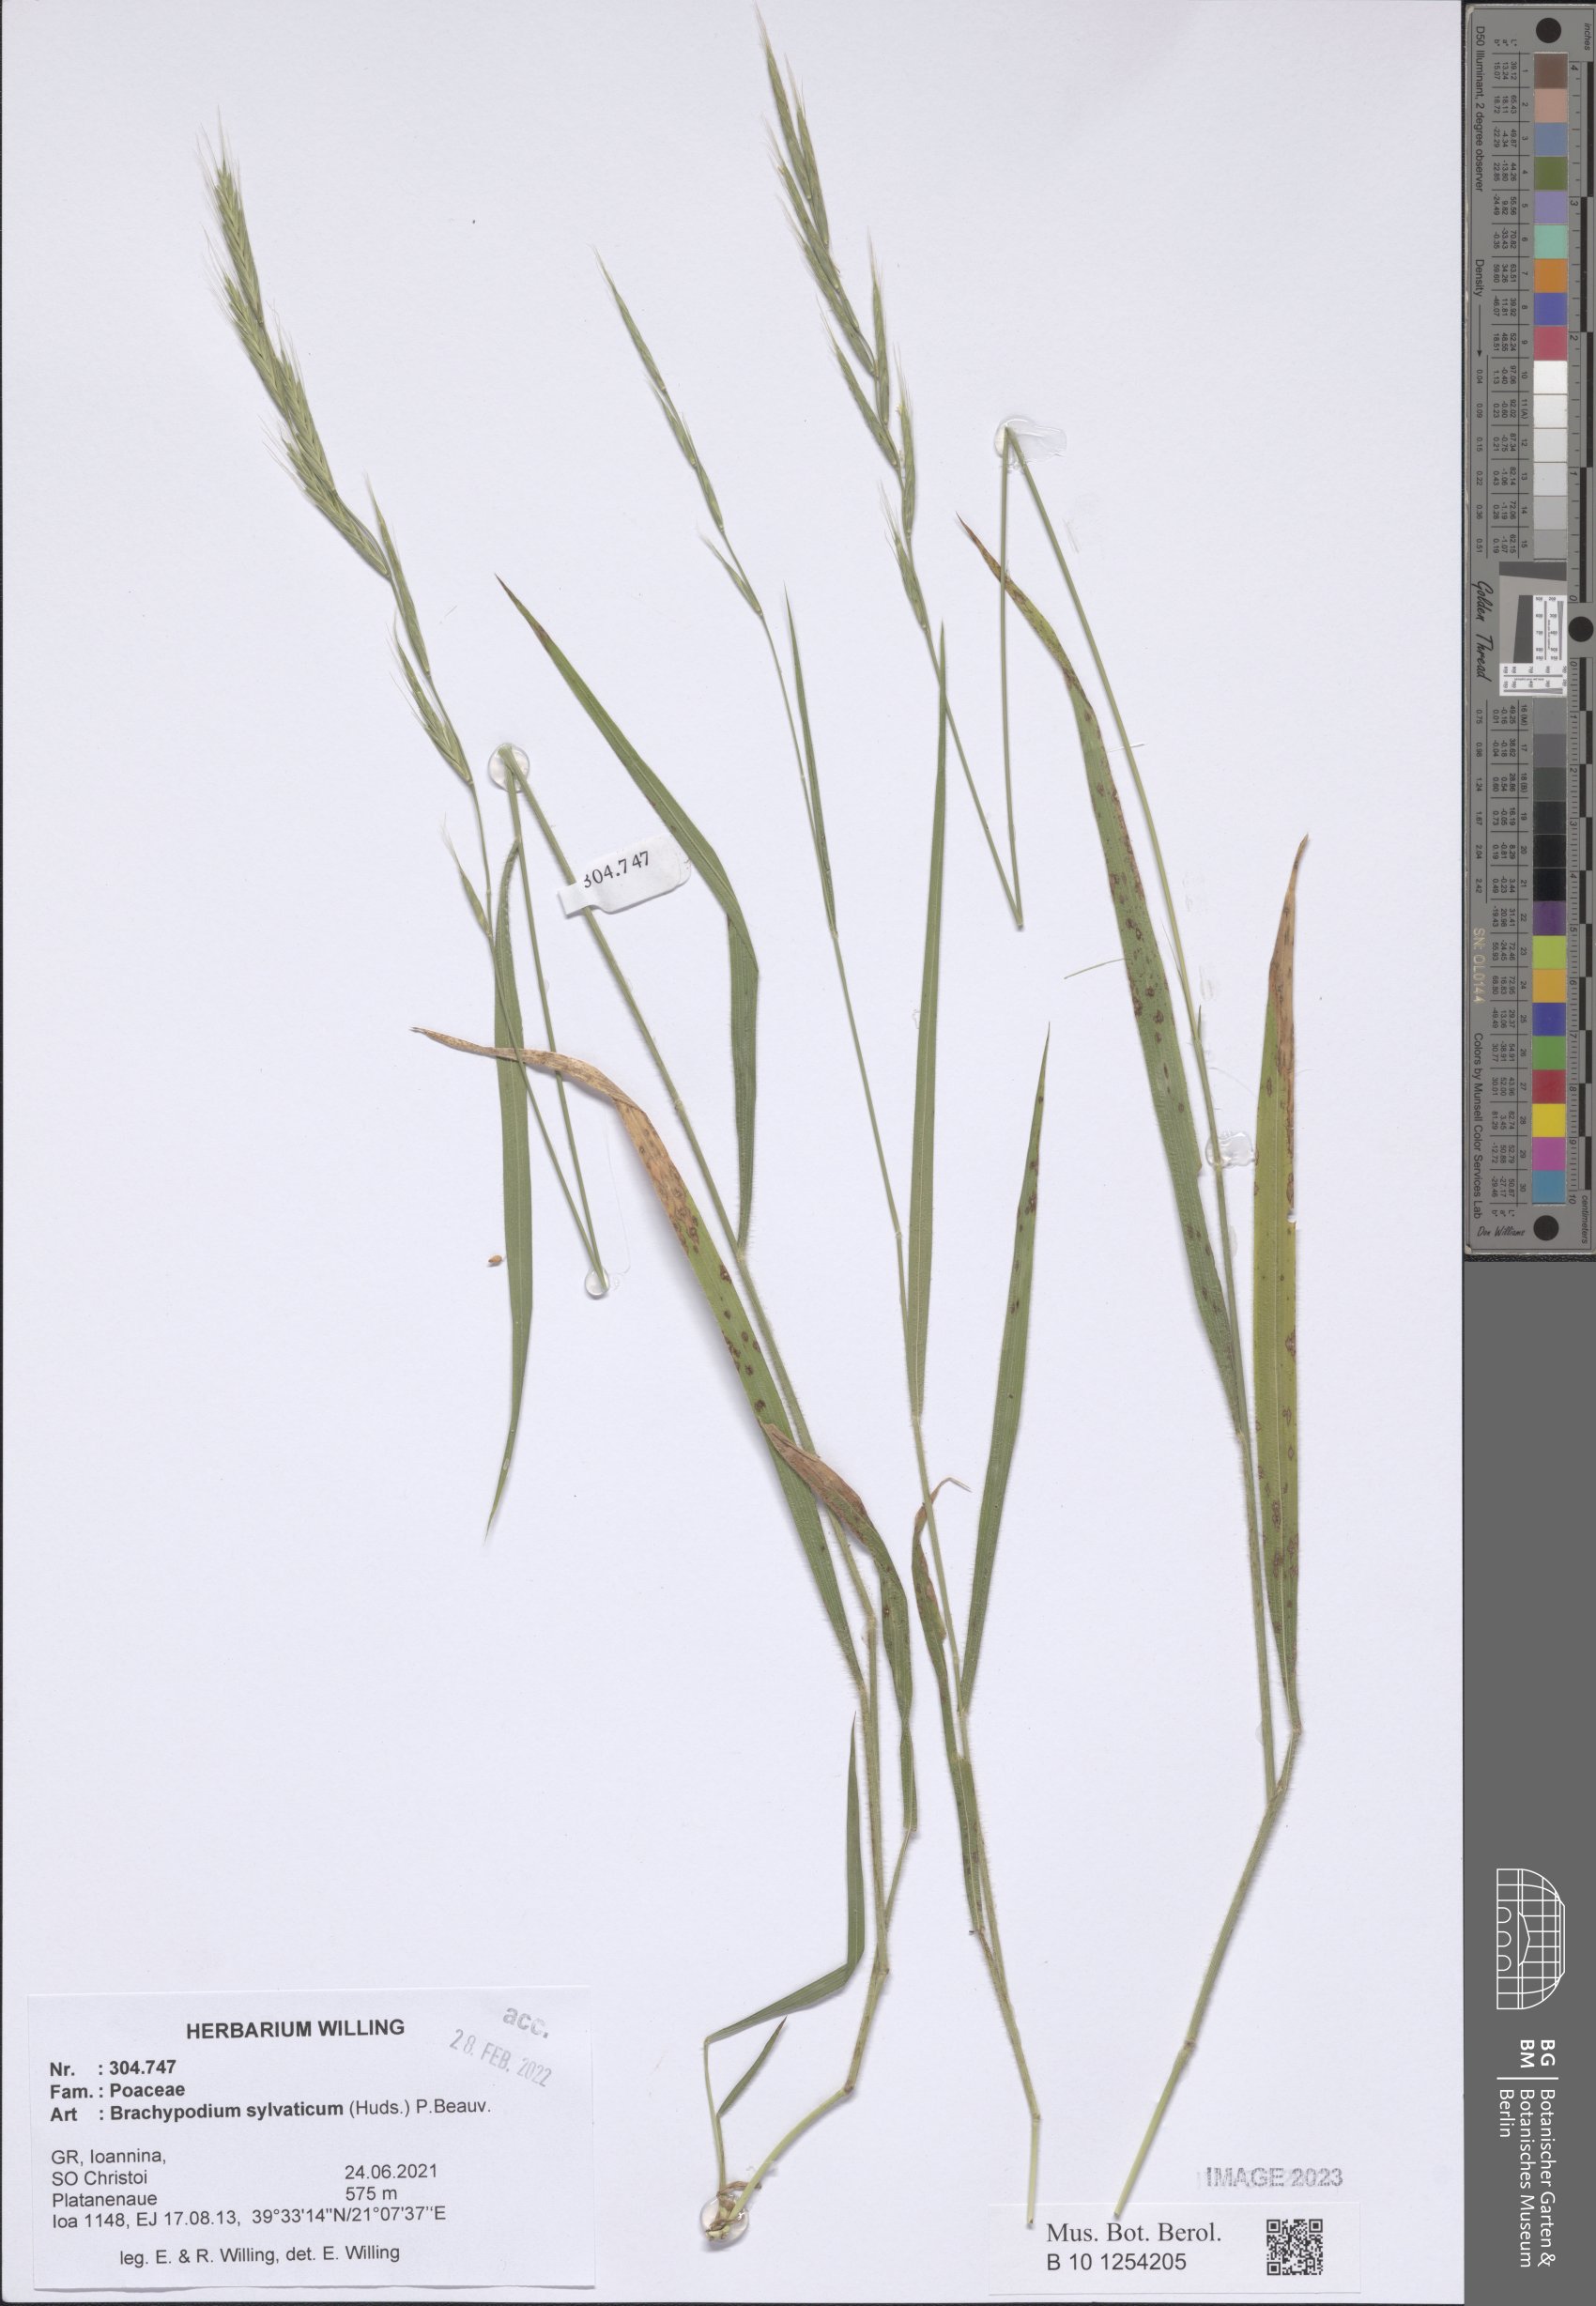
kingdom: Plantae
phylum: Tracheophyta
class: Liliopsida
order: Poales
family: Poaceae
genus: Brachypodium
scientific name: Brachypodium sylvaticum
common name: False-brome
